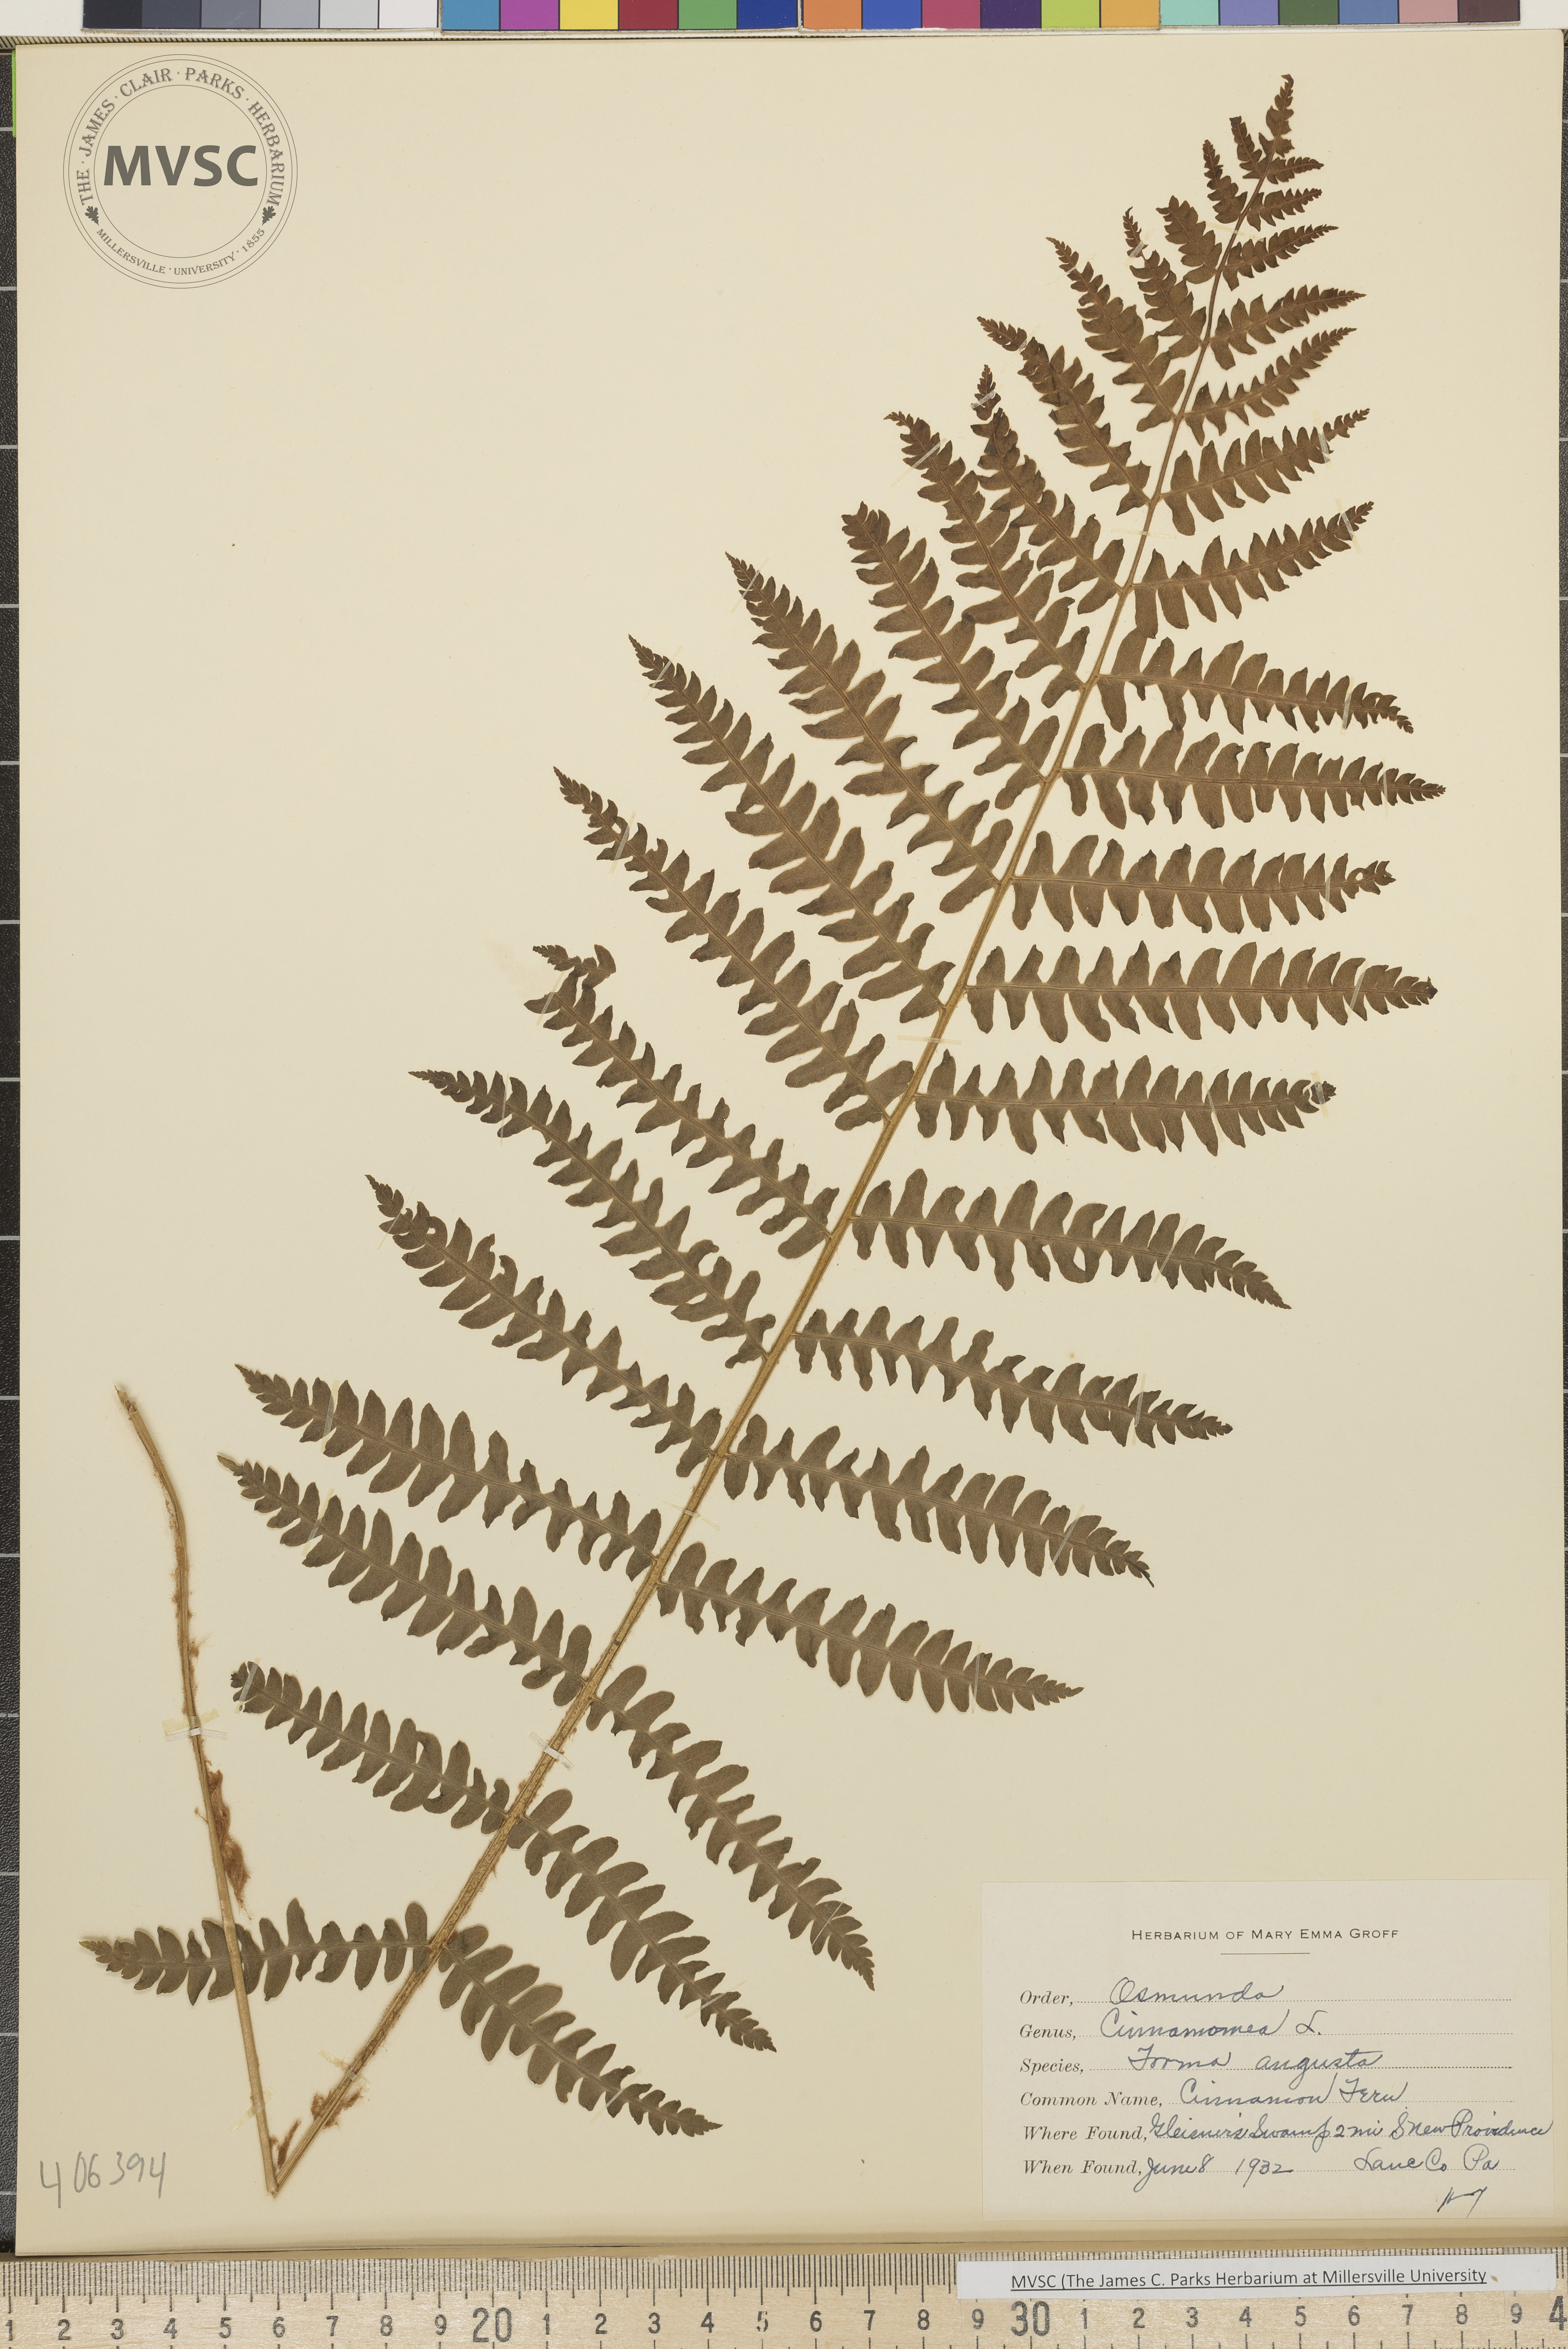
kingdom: Plantae
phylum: Tracheophyta
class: Polypodiopsida
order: Osmundales
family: Osmundaceae
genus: Osmundastrum
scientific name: Osmundastrum cinnamomeum
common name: Cinnamon fern
